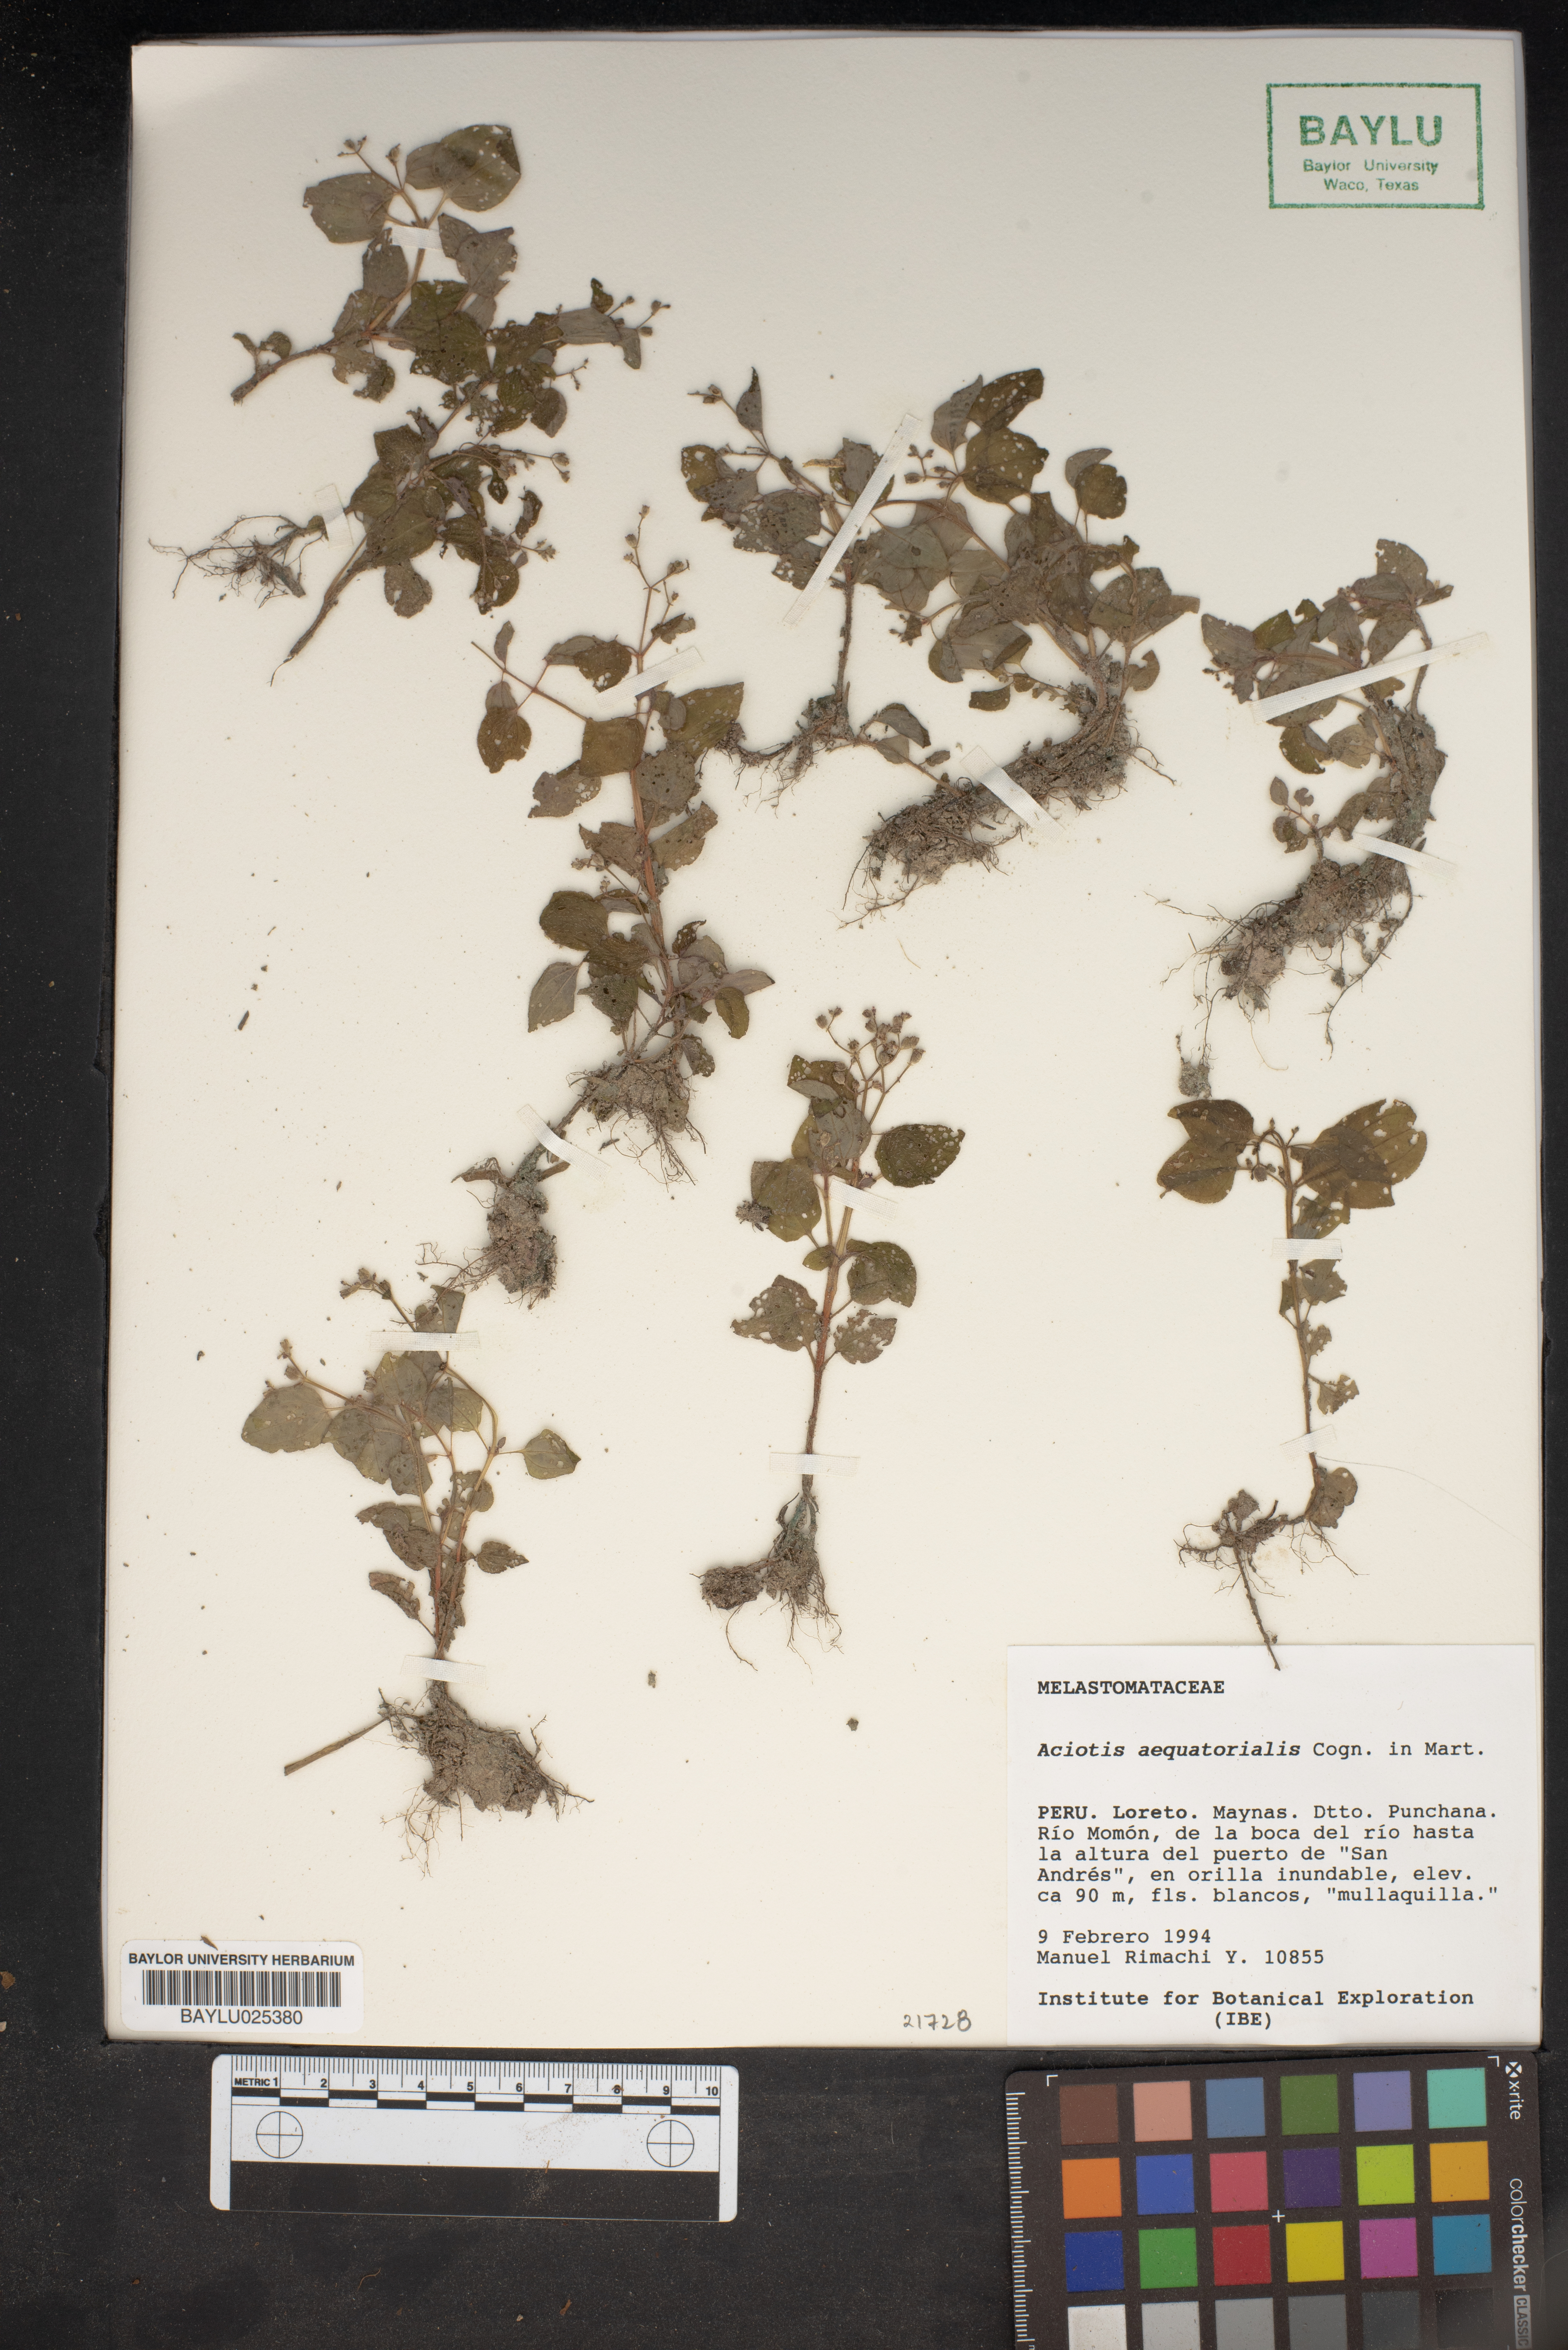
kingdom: Plantae
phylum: Tracheophyta
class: Magnoliopsida
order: Myrtales
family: Melastomataceae
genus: Aciotis
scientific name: Aciotis acuminifolia
